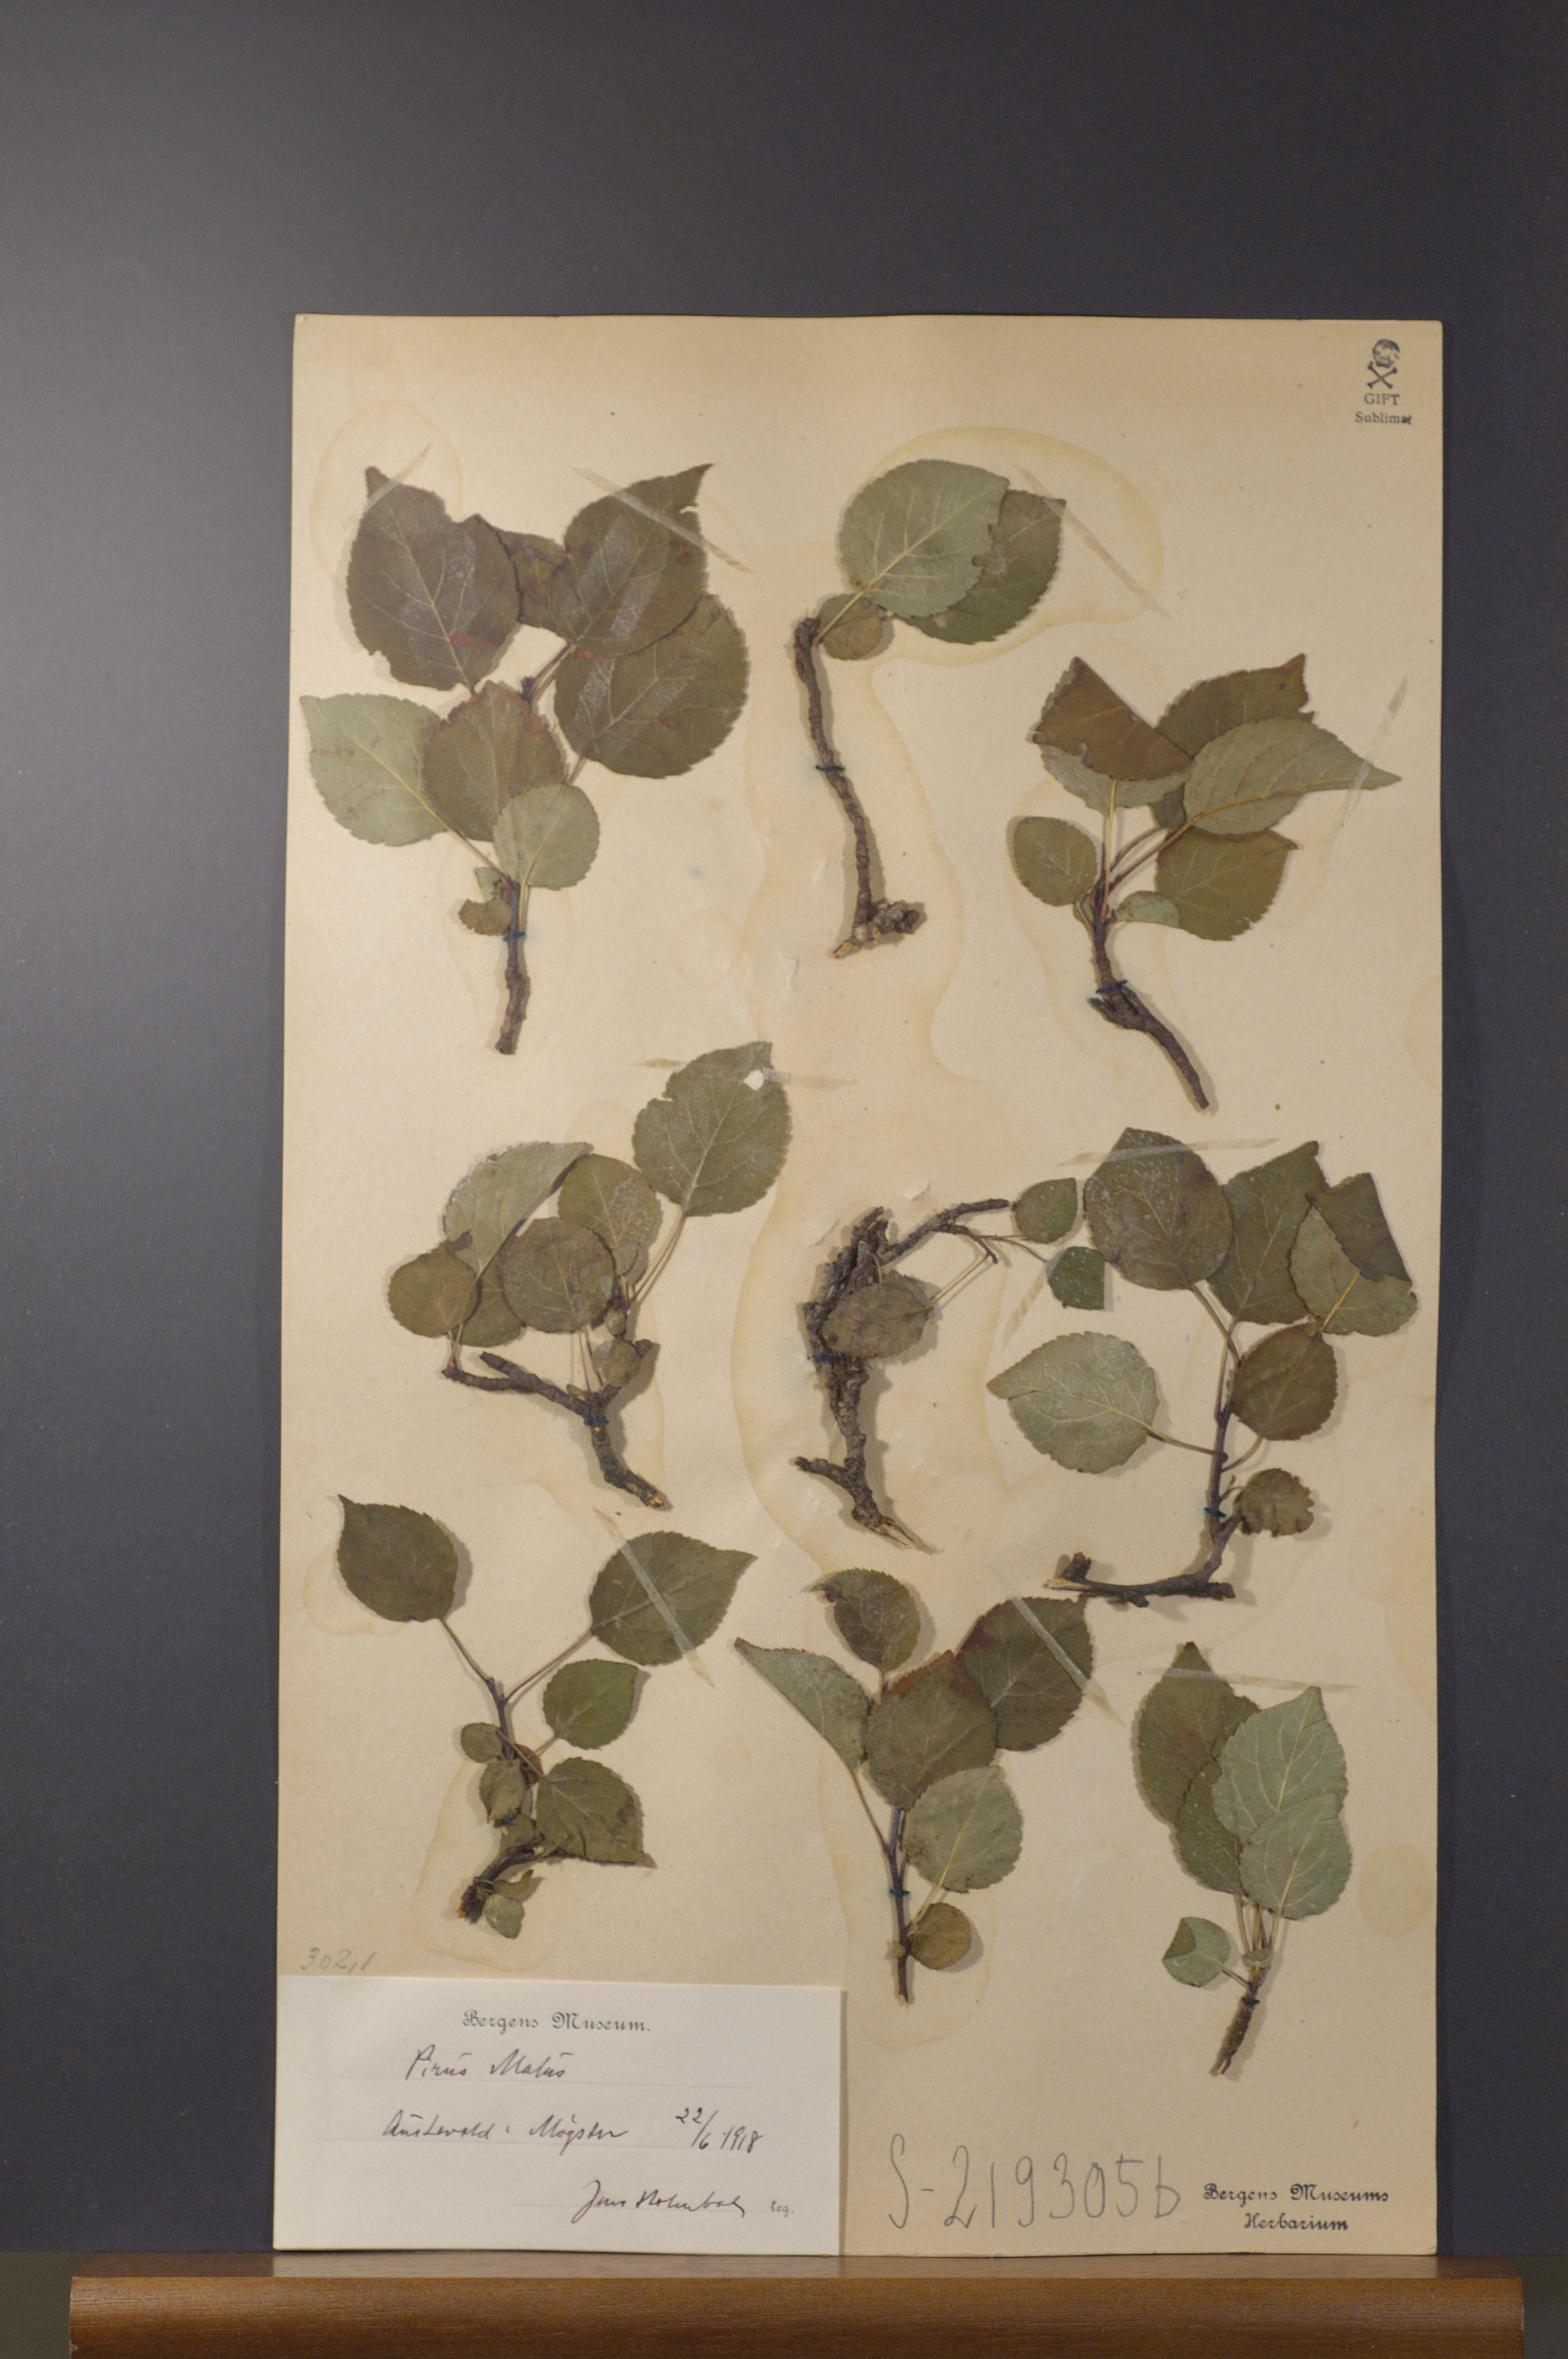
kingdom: Plantae
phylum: Tracheophyta
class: Magnoliopsida
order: Rosales
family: Rosaceae
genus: Malus
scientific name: Malus domestica
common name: Apple
